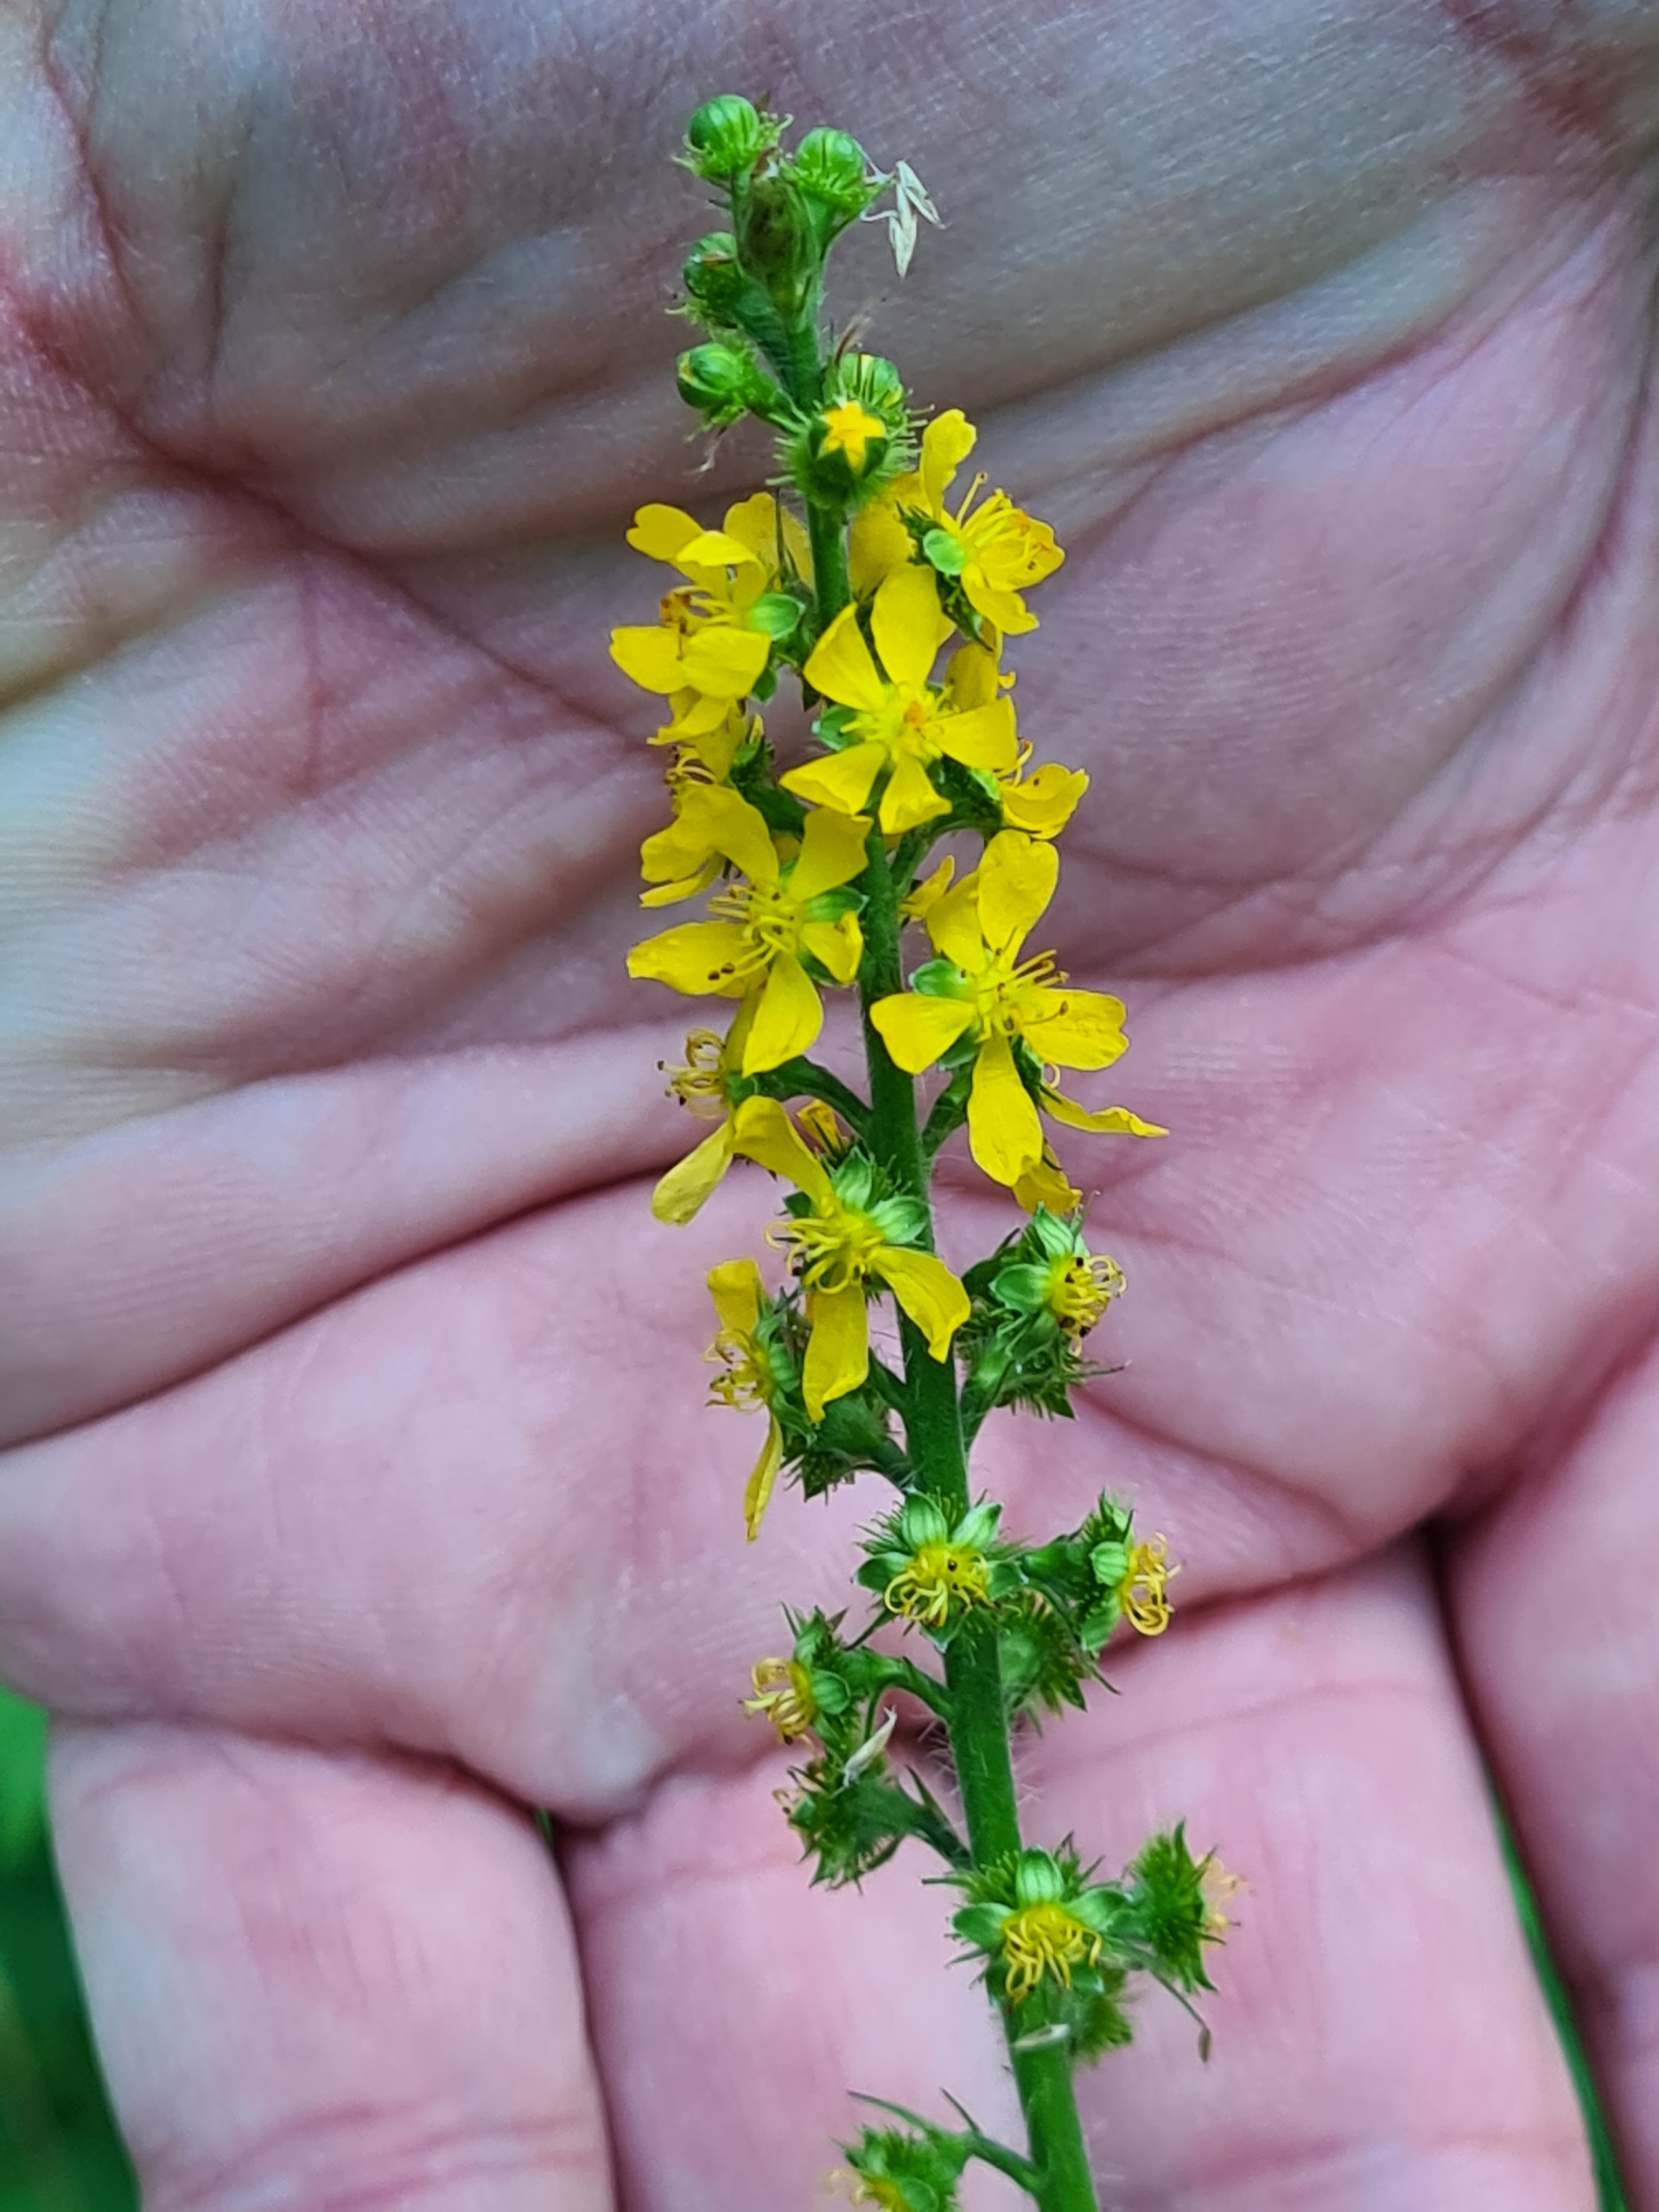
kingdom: Plantae
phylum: Tracheophyta
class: Magnoliopsida
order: Rosales
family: Rosaceae
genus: Agrimonia
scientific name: Agrimonia procera
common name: Vellugtende agermåne
